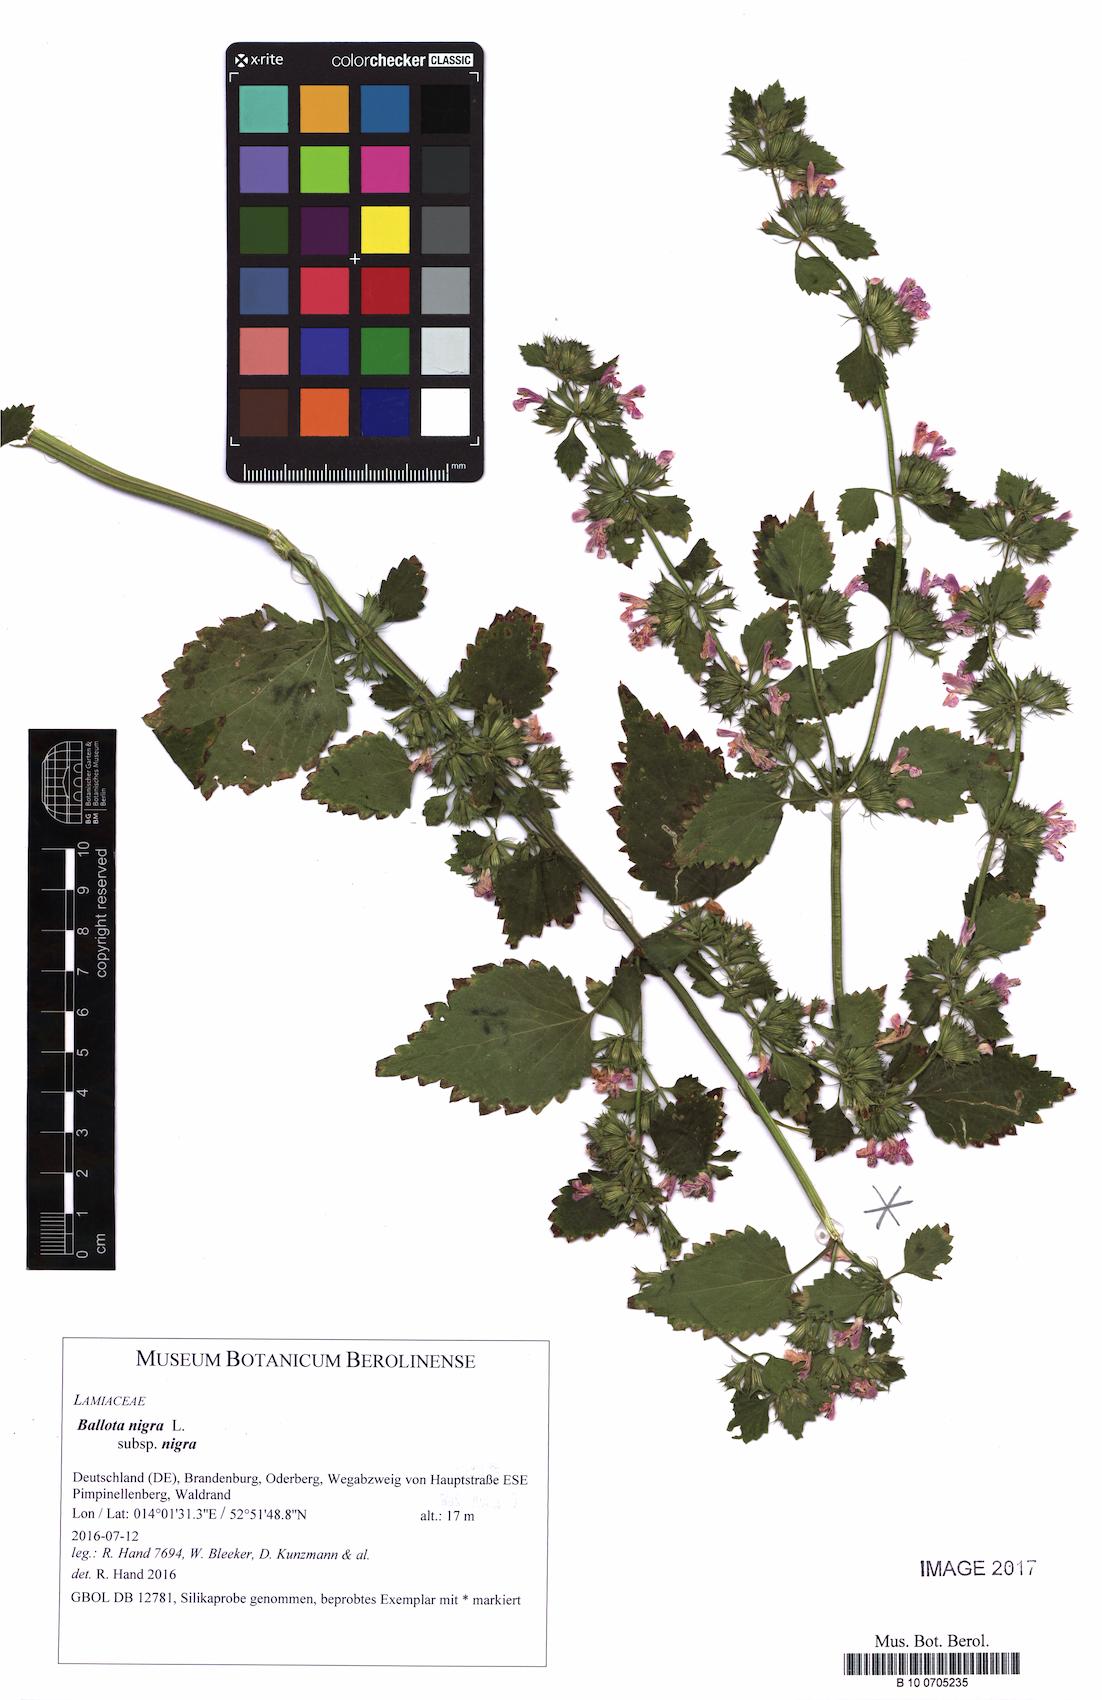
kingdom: Plantae
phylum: Tracheophyta
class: Magnoliopsida
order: Lamiales
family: Lamiaceae
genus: Ballota
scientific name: Ballota nigra
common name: Black horehound
